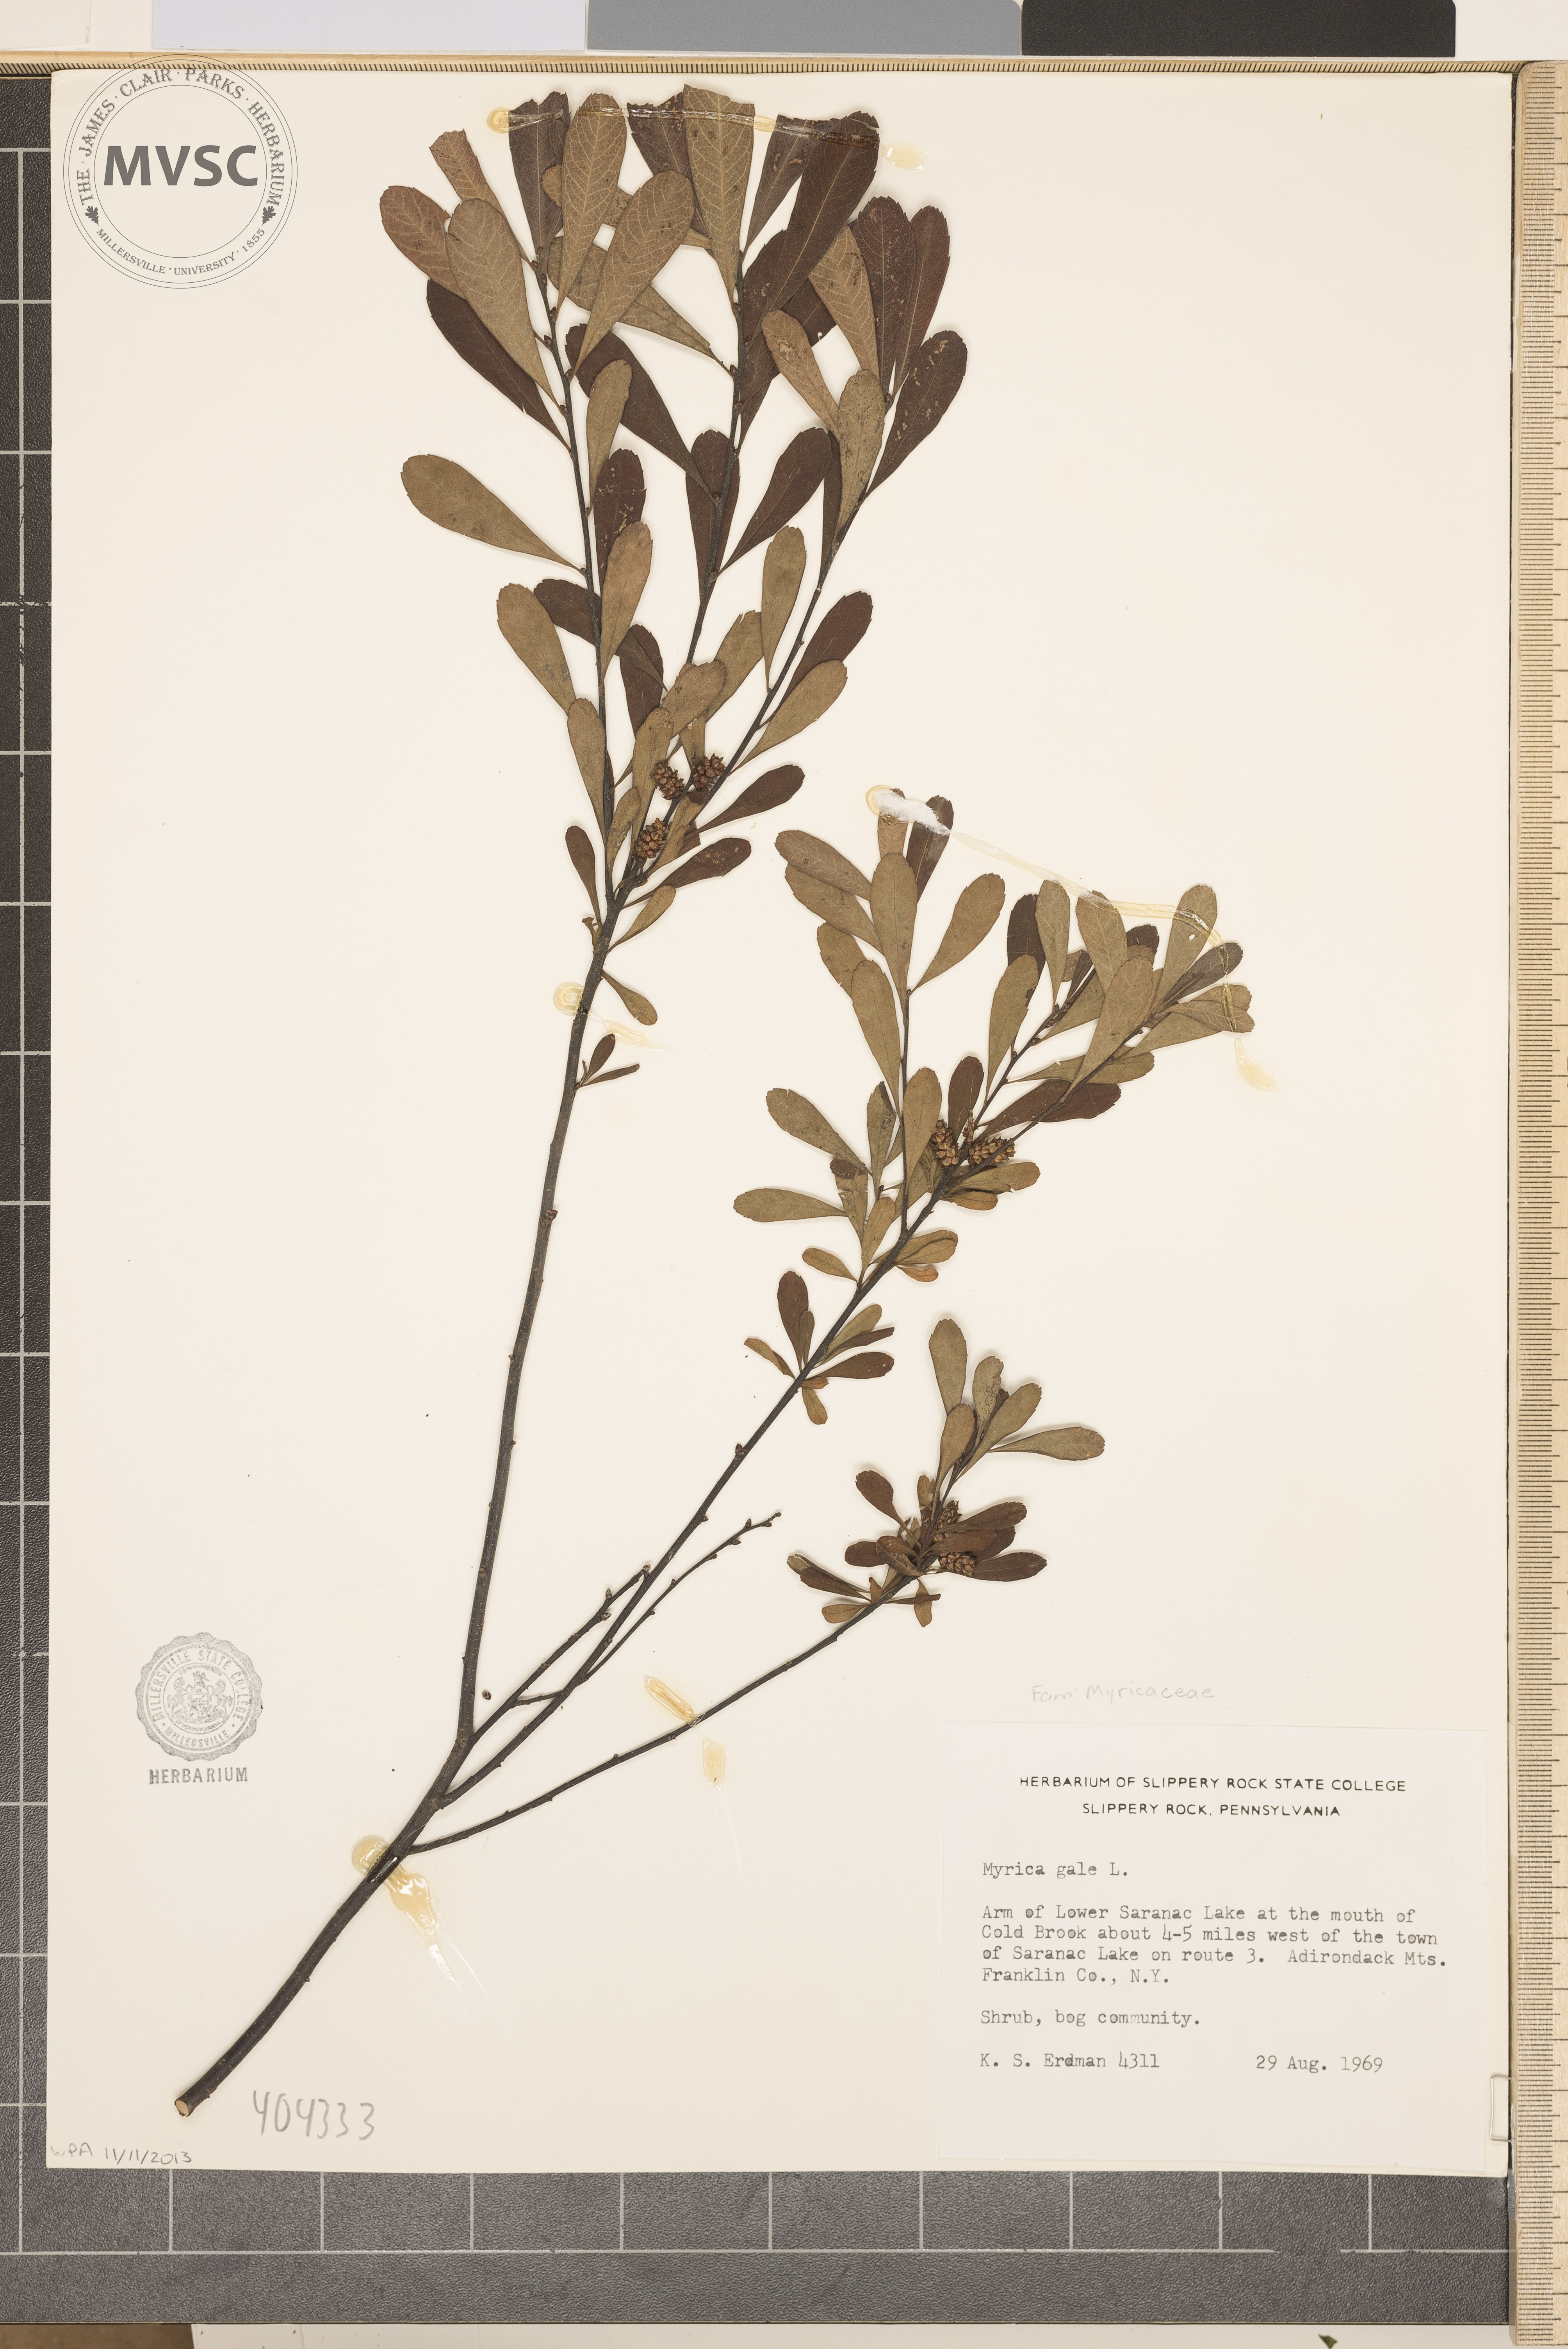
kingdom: Plantae
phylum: Tracheophyta
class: Magnoliopsida
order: Fagales
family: Myricaceae
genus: Myrica
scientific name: Myrica gale
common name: Sweet gale
